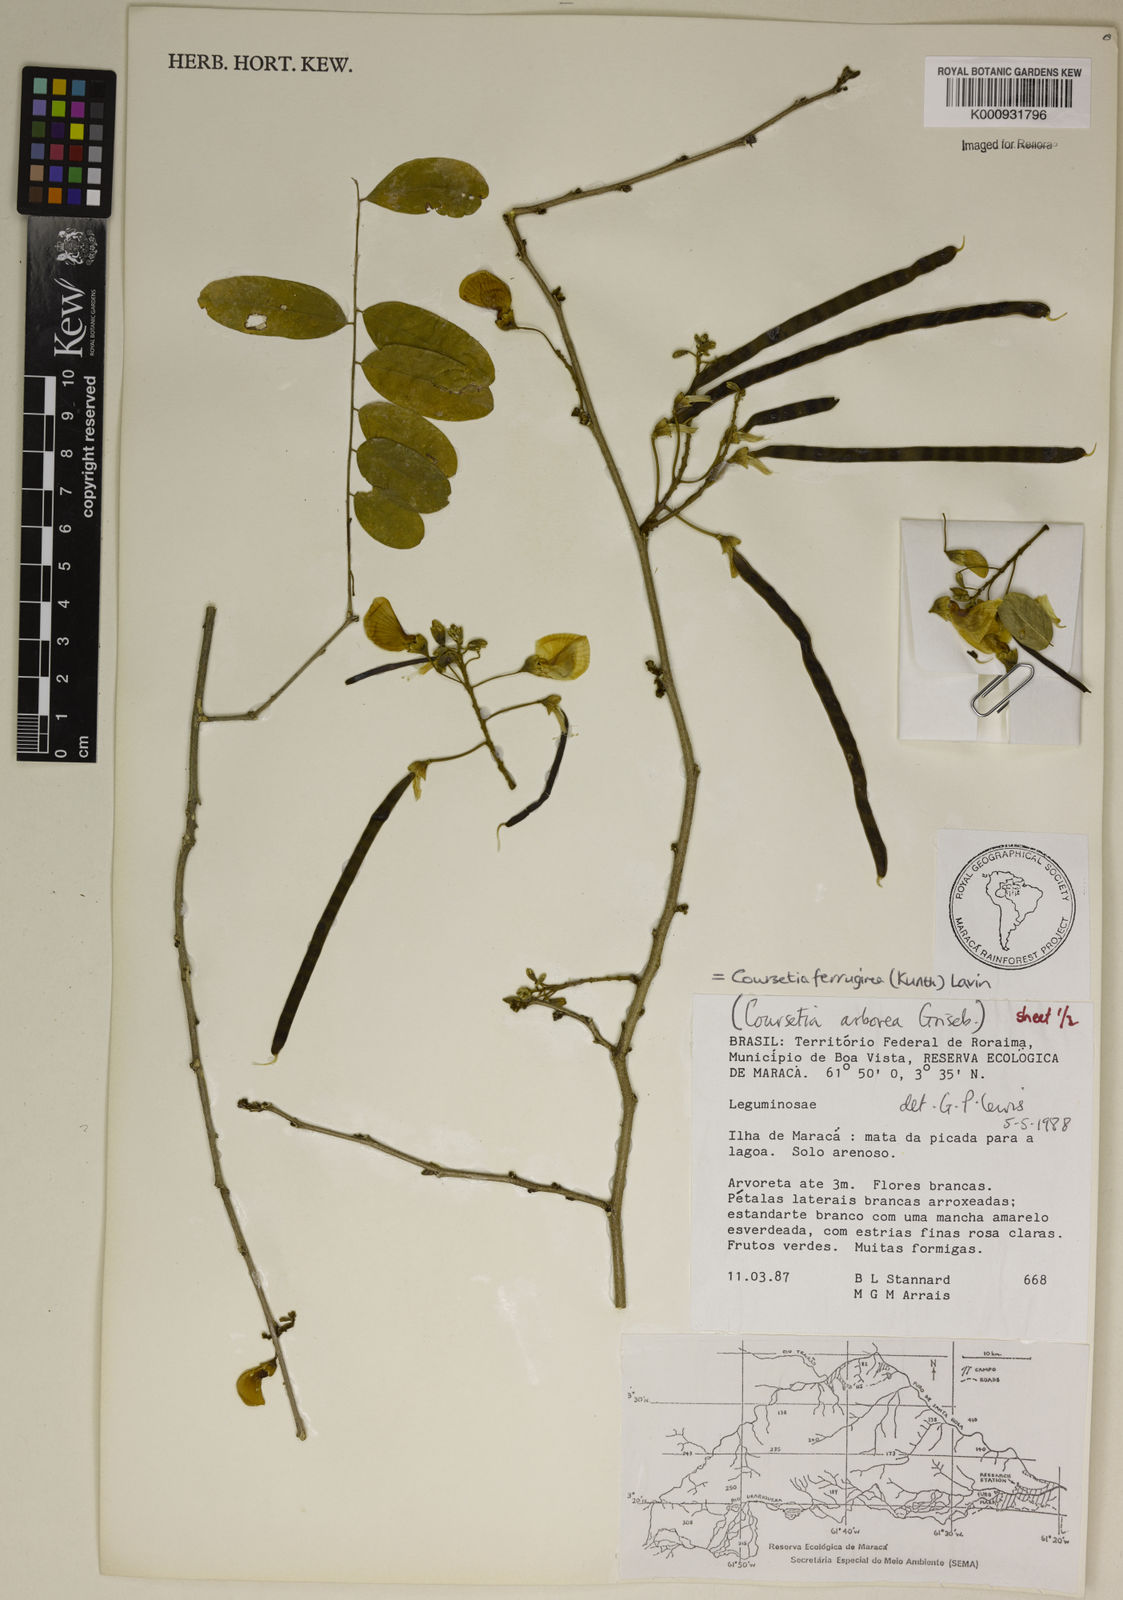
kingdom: Plantae
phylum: Tracheophyta
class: Magnoliopsida
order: Fabales
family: Fabaceae
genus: Coursetia
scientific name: Coursetia ferruginea
